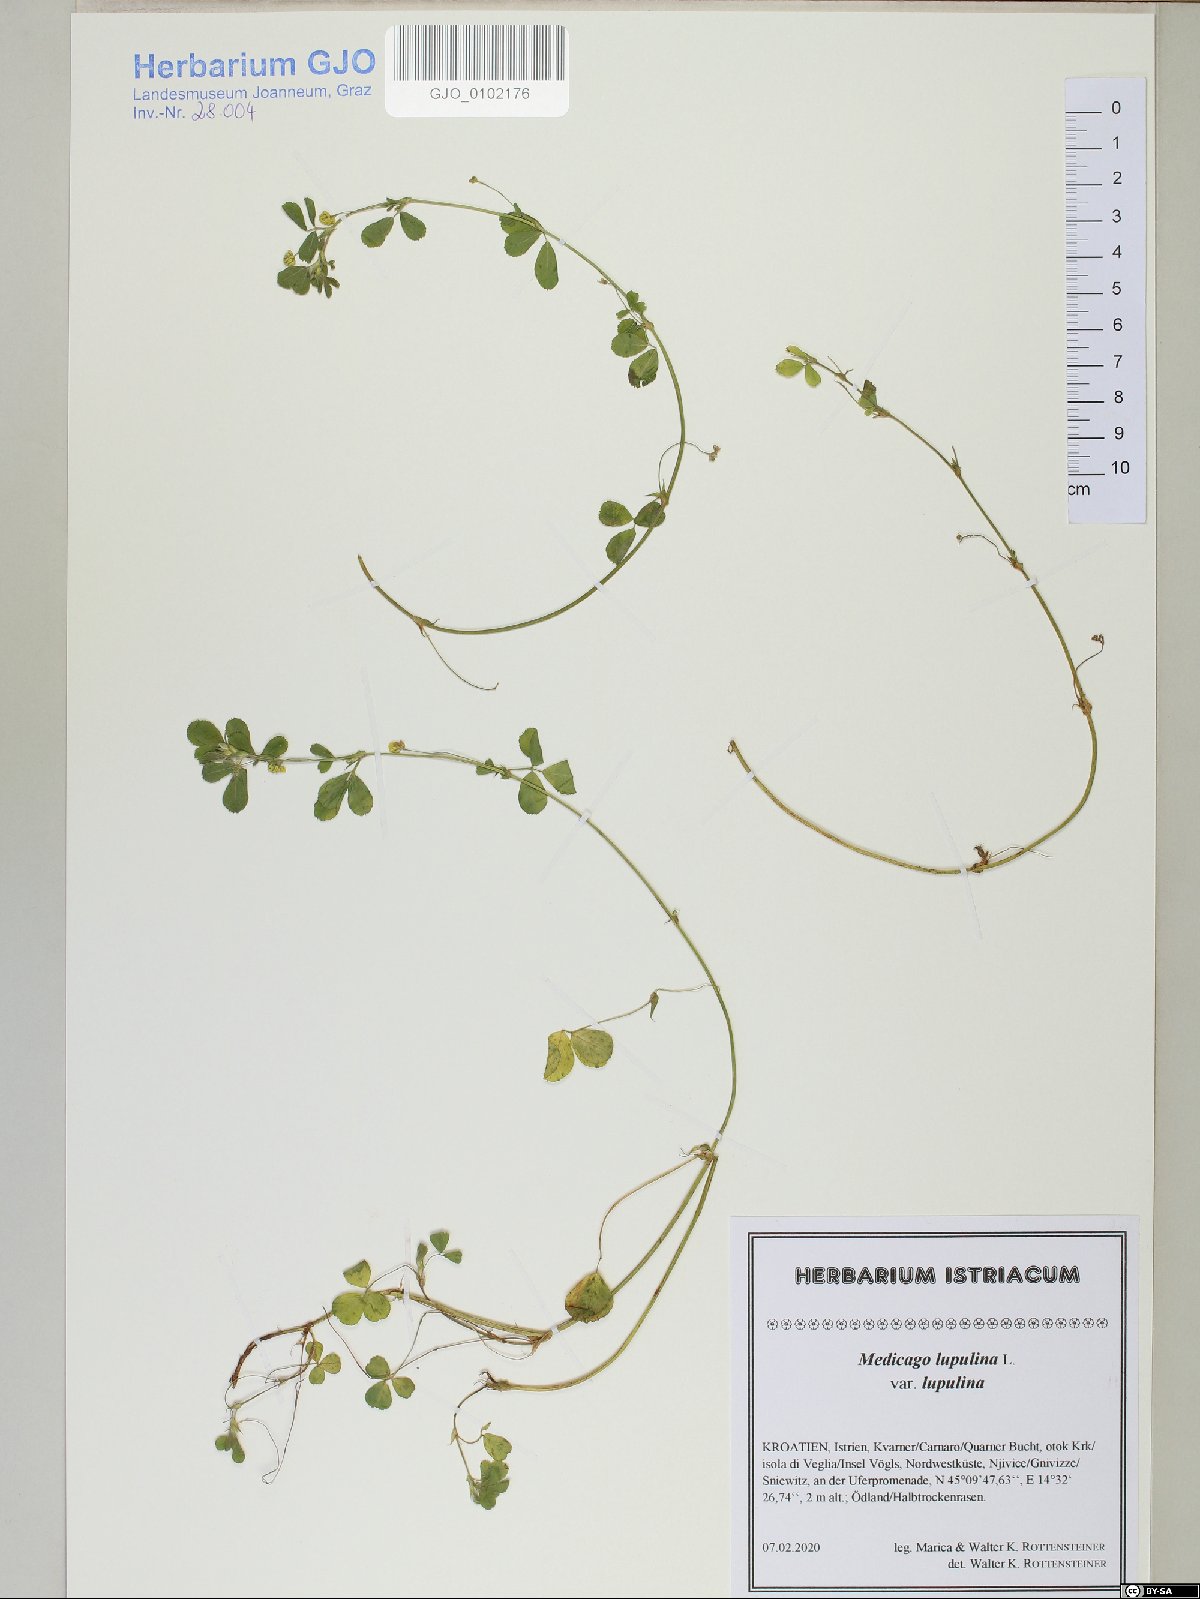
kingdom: Plantae
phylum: Tracheophyta
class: Magnoliopsida
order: Fabales
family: Fabaceae
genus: Medicago
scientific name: Medicago lupulina
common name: Black medick
